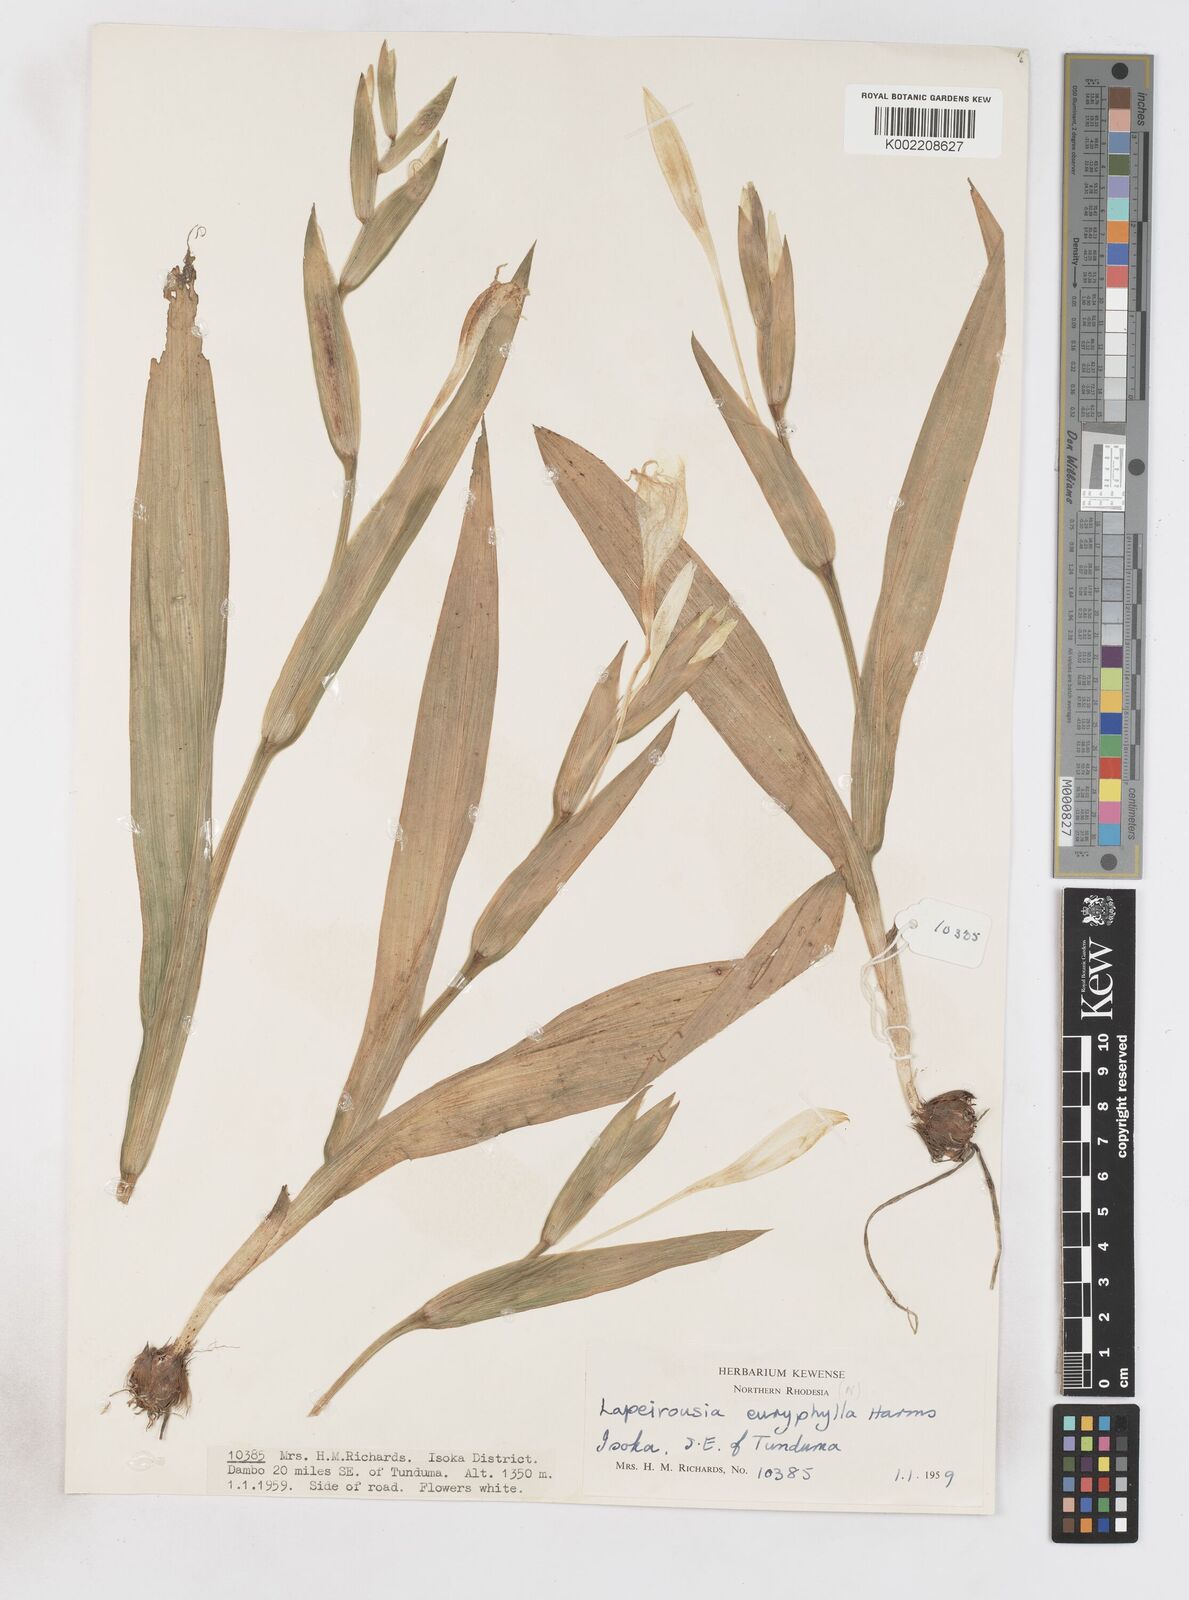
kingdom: Plantae
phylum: Tracheophyta
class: Liliopsida
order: Asparagales
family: Iridaceae
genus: Savannosiphon
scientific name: Savannosiphon euryphylla
